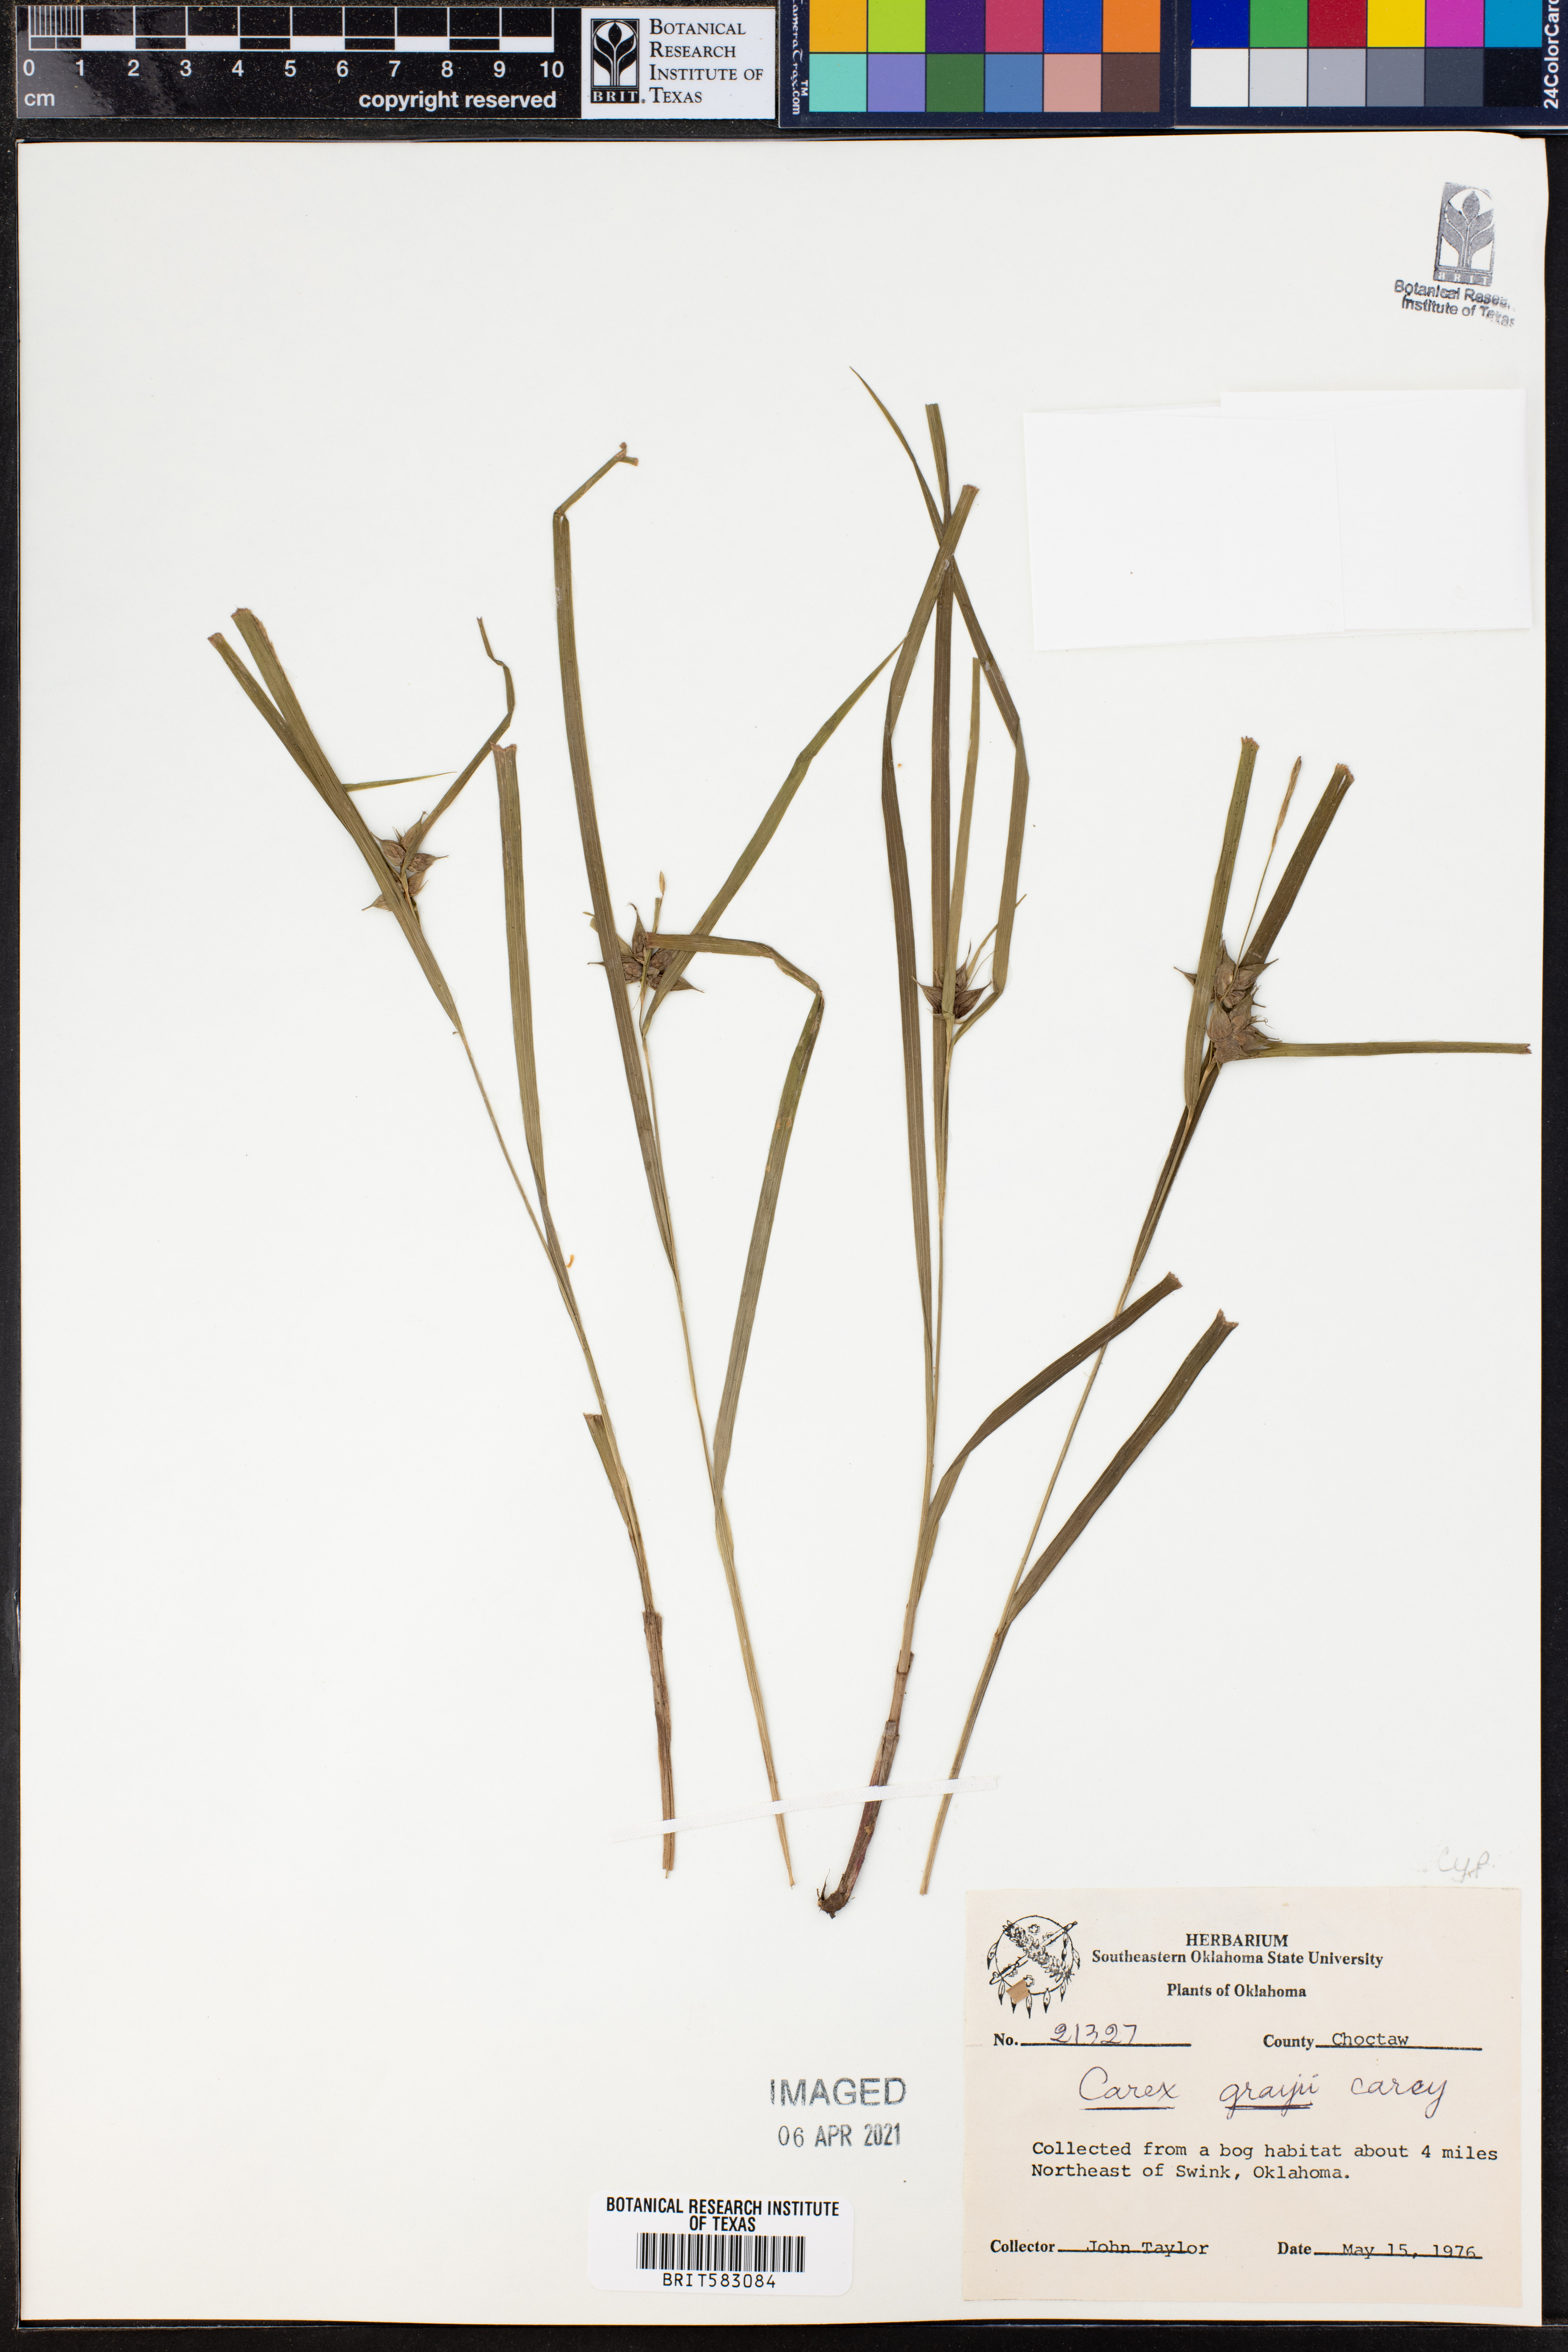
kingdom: Plantae
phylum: Tracheophyta
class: Liliopsida
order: Poales
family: Cyperaceae
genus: Carex
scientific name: Carex grayi
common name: Asa gray's sedge
